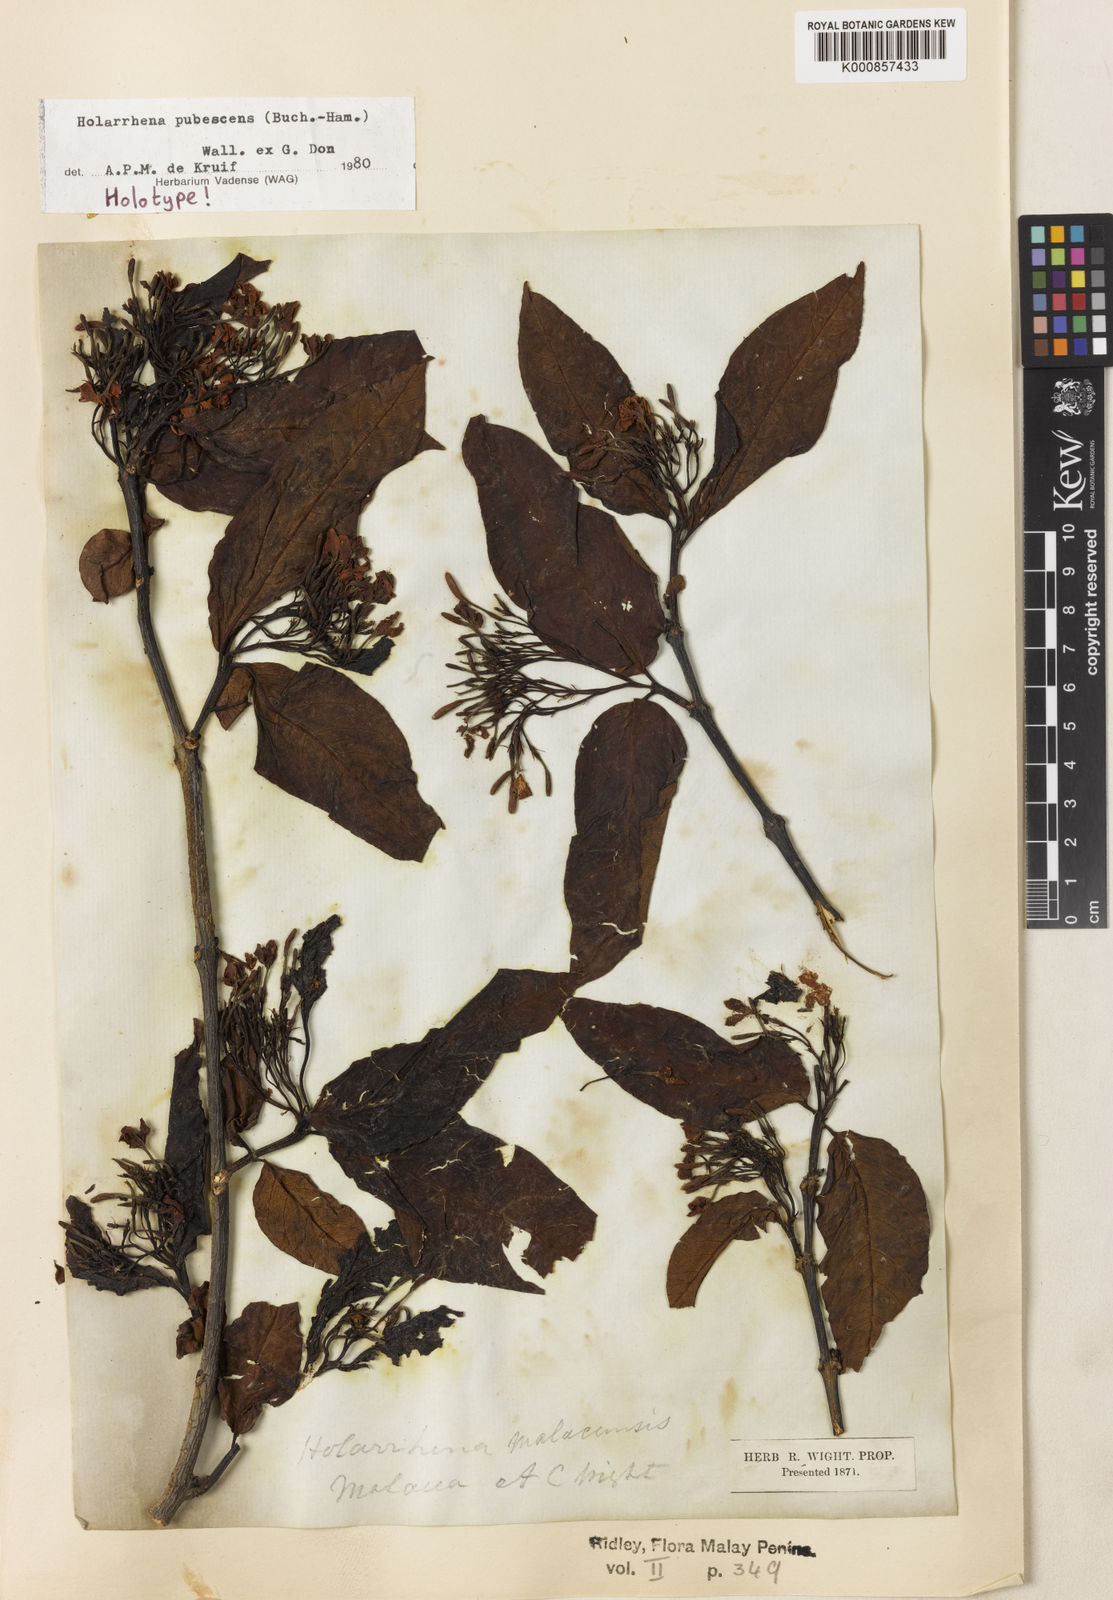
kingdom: Plantae
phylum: Tracheophyta
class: Magnoliopsida
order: Gentianales
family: Apocynaceae
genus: Holarrhena
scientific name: Holarrhena pubescens
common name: Bitter oleander
